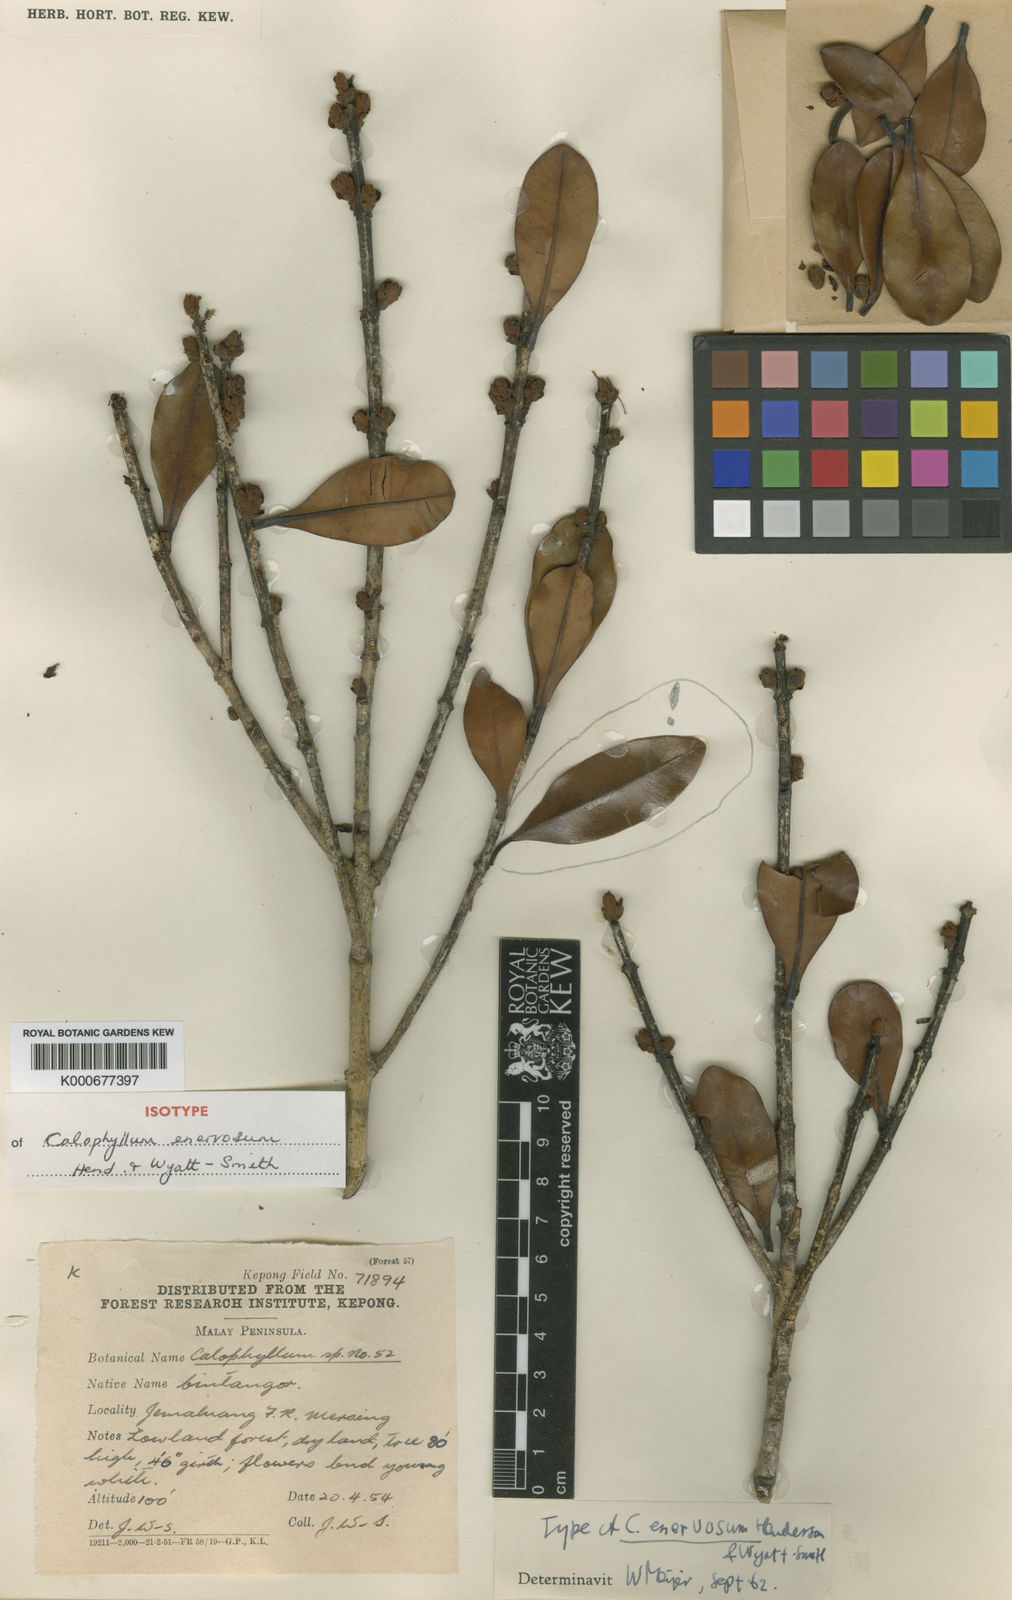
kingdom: Plantae
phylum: Tracheophyta
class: Magnoliopsida
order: Malpighiales
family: Calophyllaceae
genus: Calophyllum
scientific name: Calophyllum enervosum
